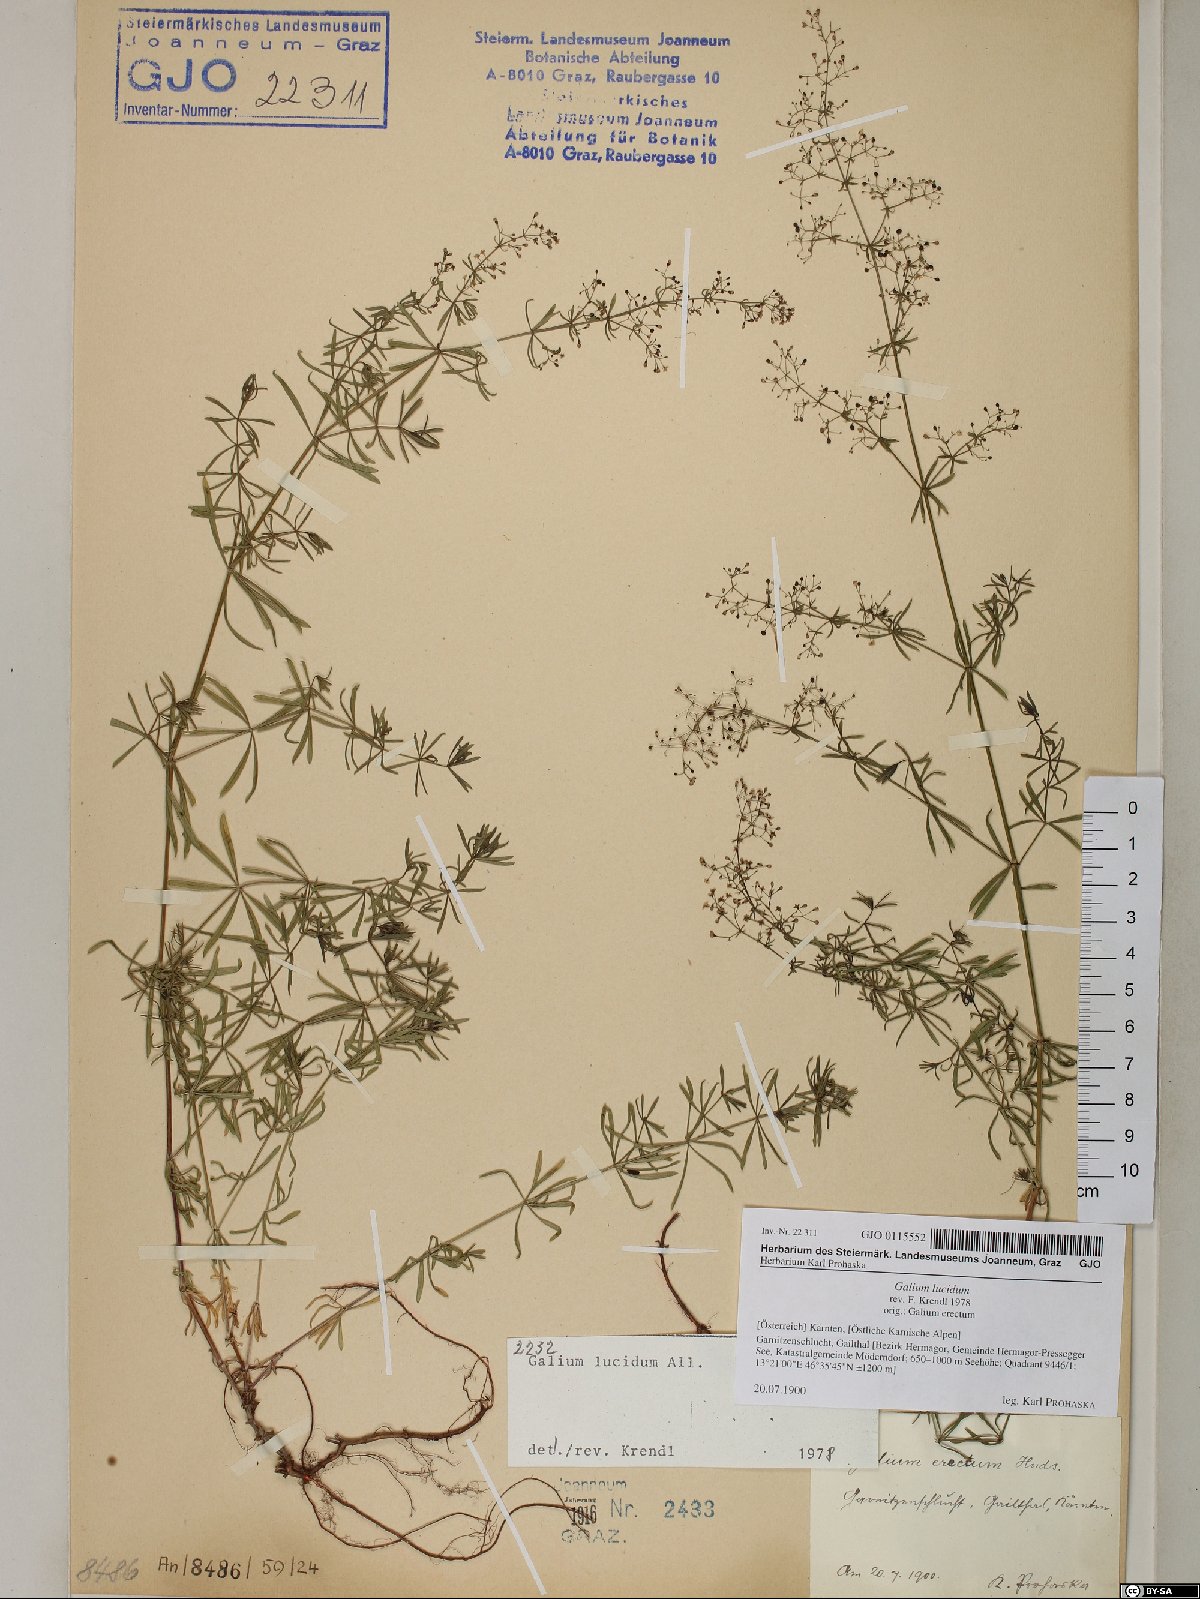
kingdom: Plantae
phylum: Tracheophyta
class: Magnoliopsida
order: Gentianales
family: Rubiaceae
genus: Galium
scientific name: Galium lucidum
